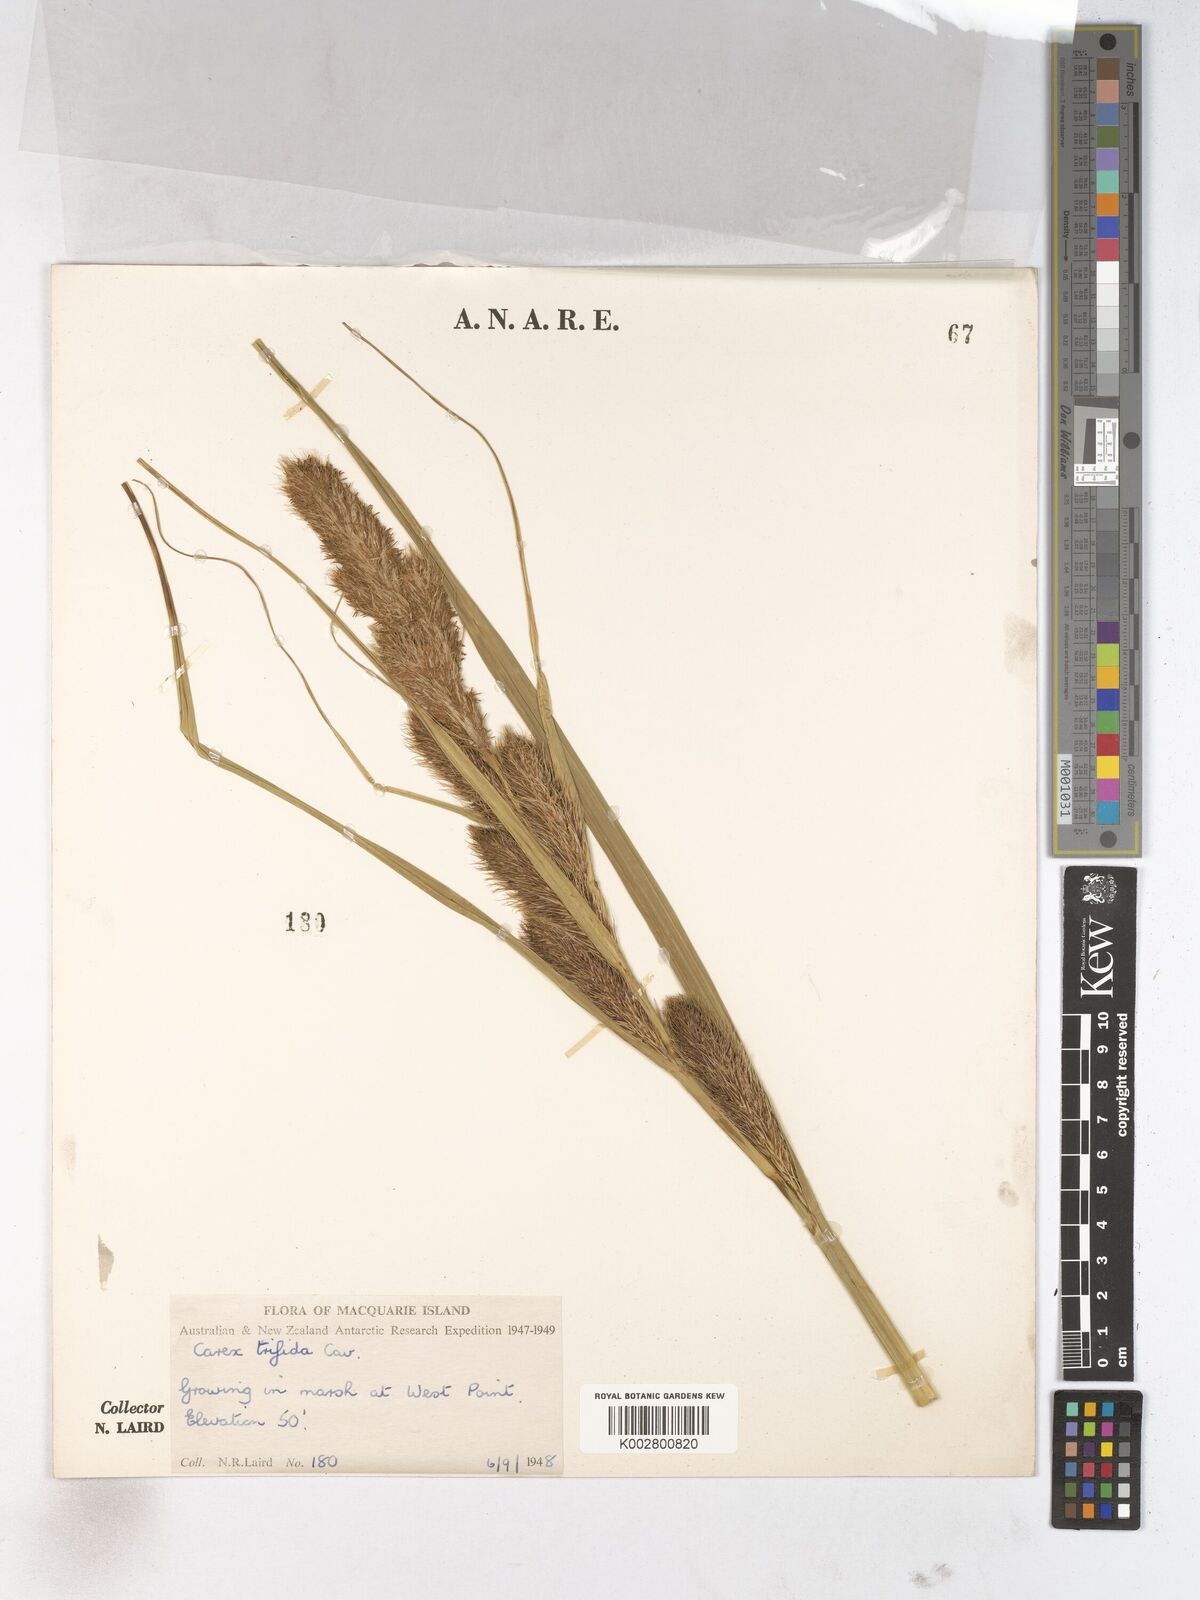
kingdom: Plantae
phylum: Tracheophyta
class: Liliopsida
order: Poales
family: Cyperaceae
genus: Carex
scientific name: Carex trifida
